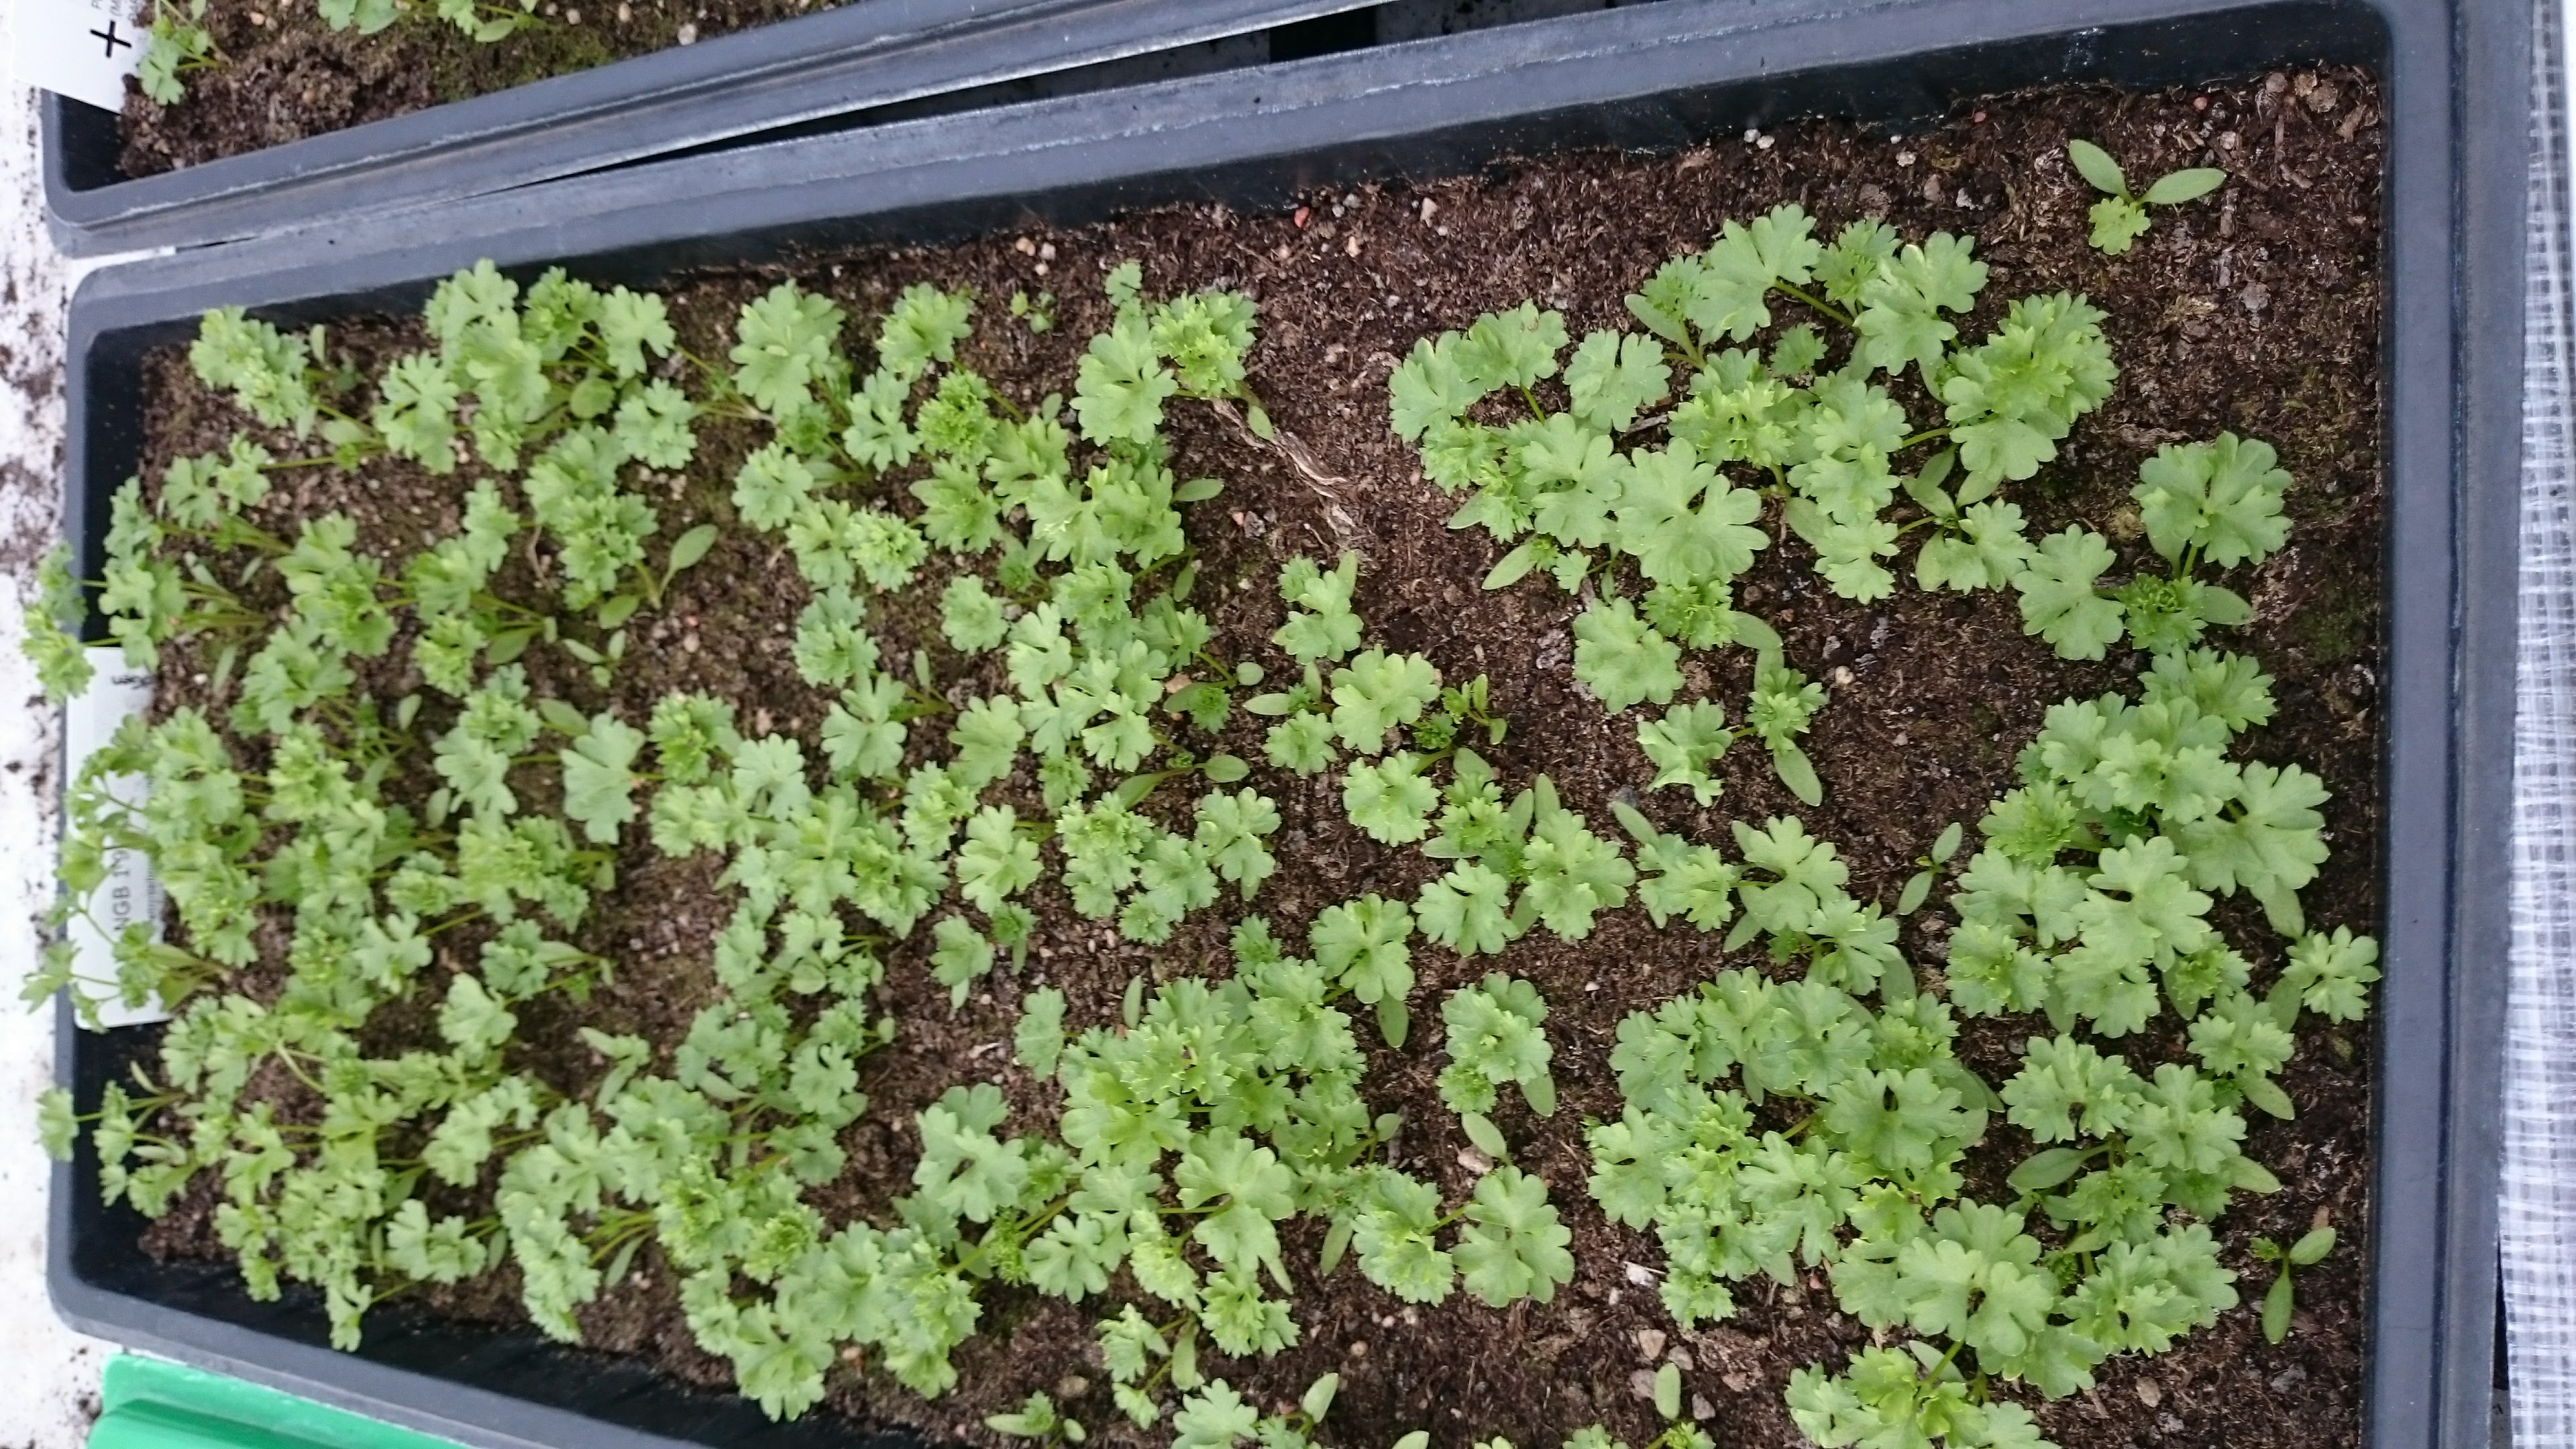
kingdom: Plantae
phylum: Tracheophyta
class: Magnoliopsida
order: Apiales
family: Apiaceae
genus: Petroselinum
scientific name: Petroselinum crispum
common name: Parsley
